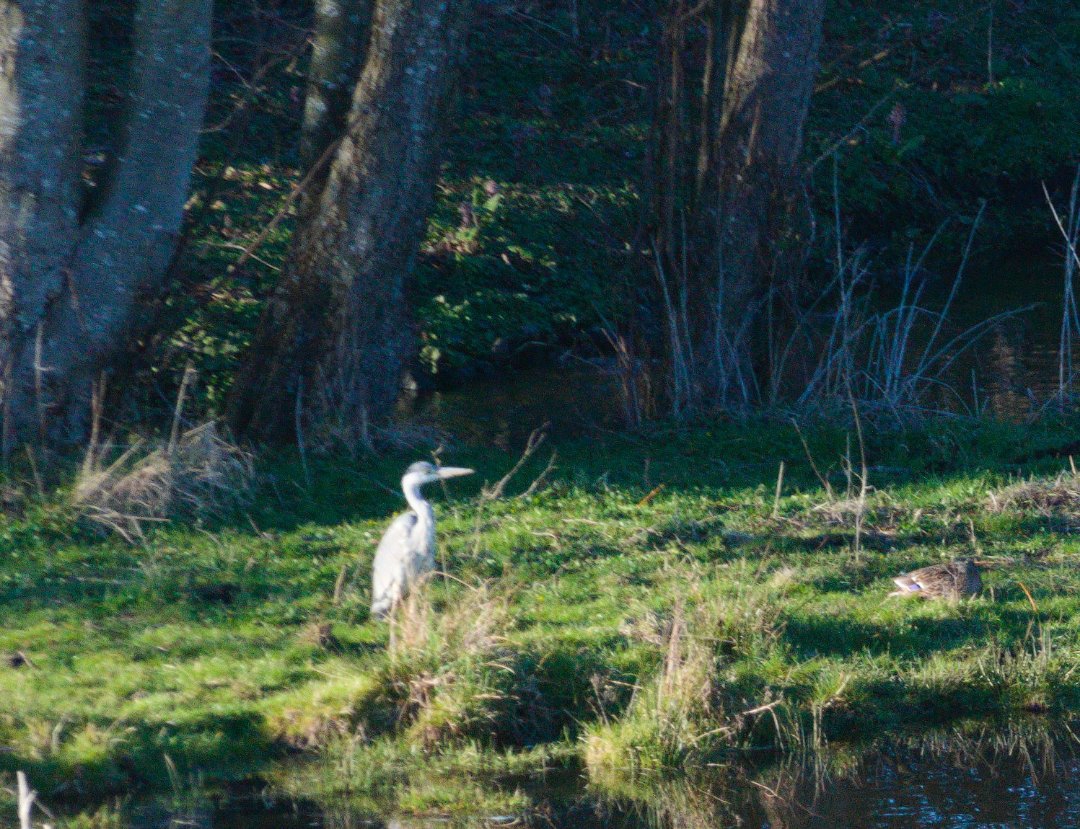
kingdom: Animalia
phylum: Chordata
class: Aves
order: Pelecaniformes
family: Ardeidae
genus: Ardea
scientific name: Ardea cinerea
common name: Fiskehejre
